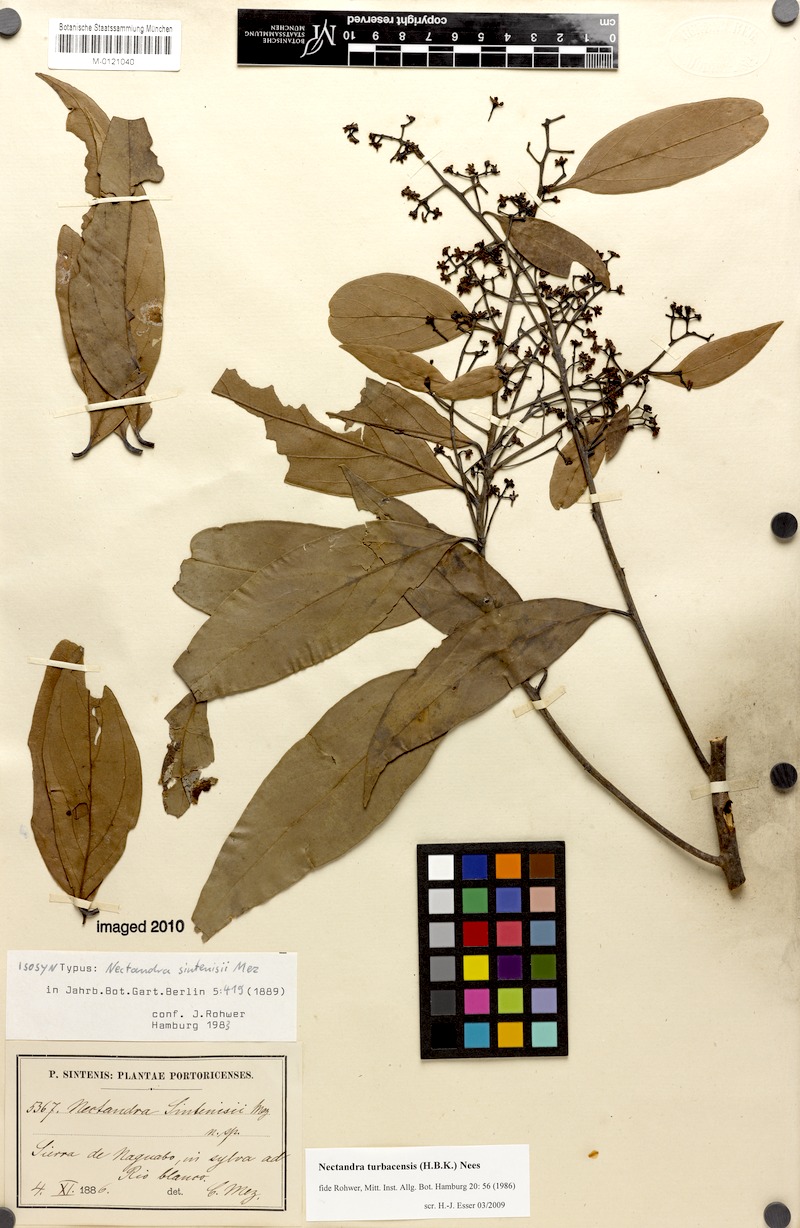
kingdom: Plantae
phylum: Tracheophyta
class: Magnoliopsida
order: Laurales
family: Lauraceae
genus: Nectandra
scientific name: Nectandra turbacensis
